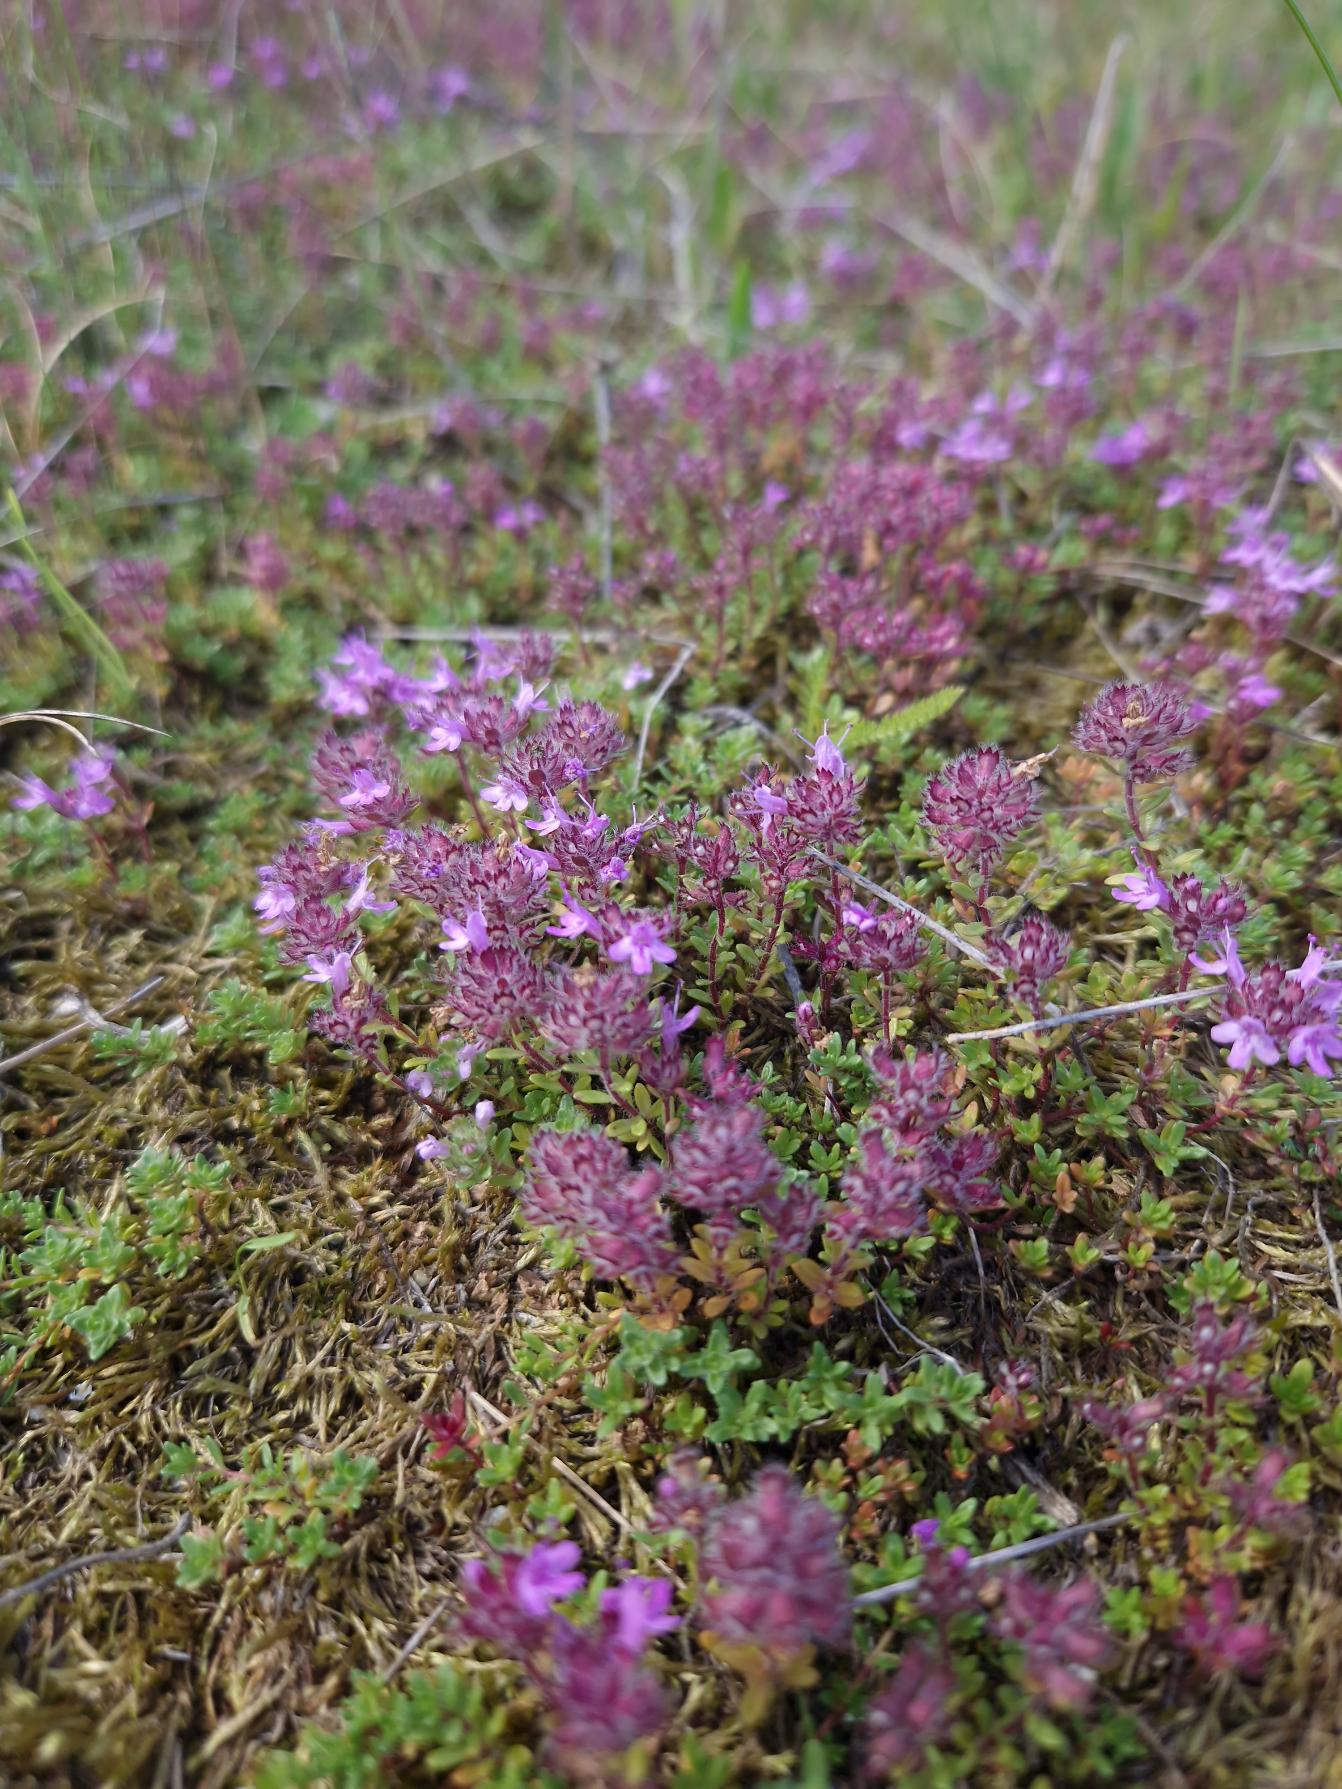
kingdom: Plantae
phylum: Tracheophyta
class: Magnoliopsida
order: Lamiales
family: Lamiaceae
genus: Thymus
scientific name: Thymus serpyllum
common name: Smalbladet timian
